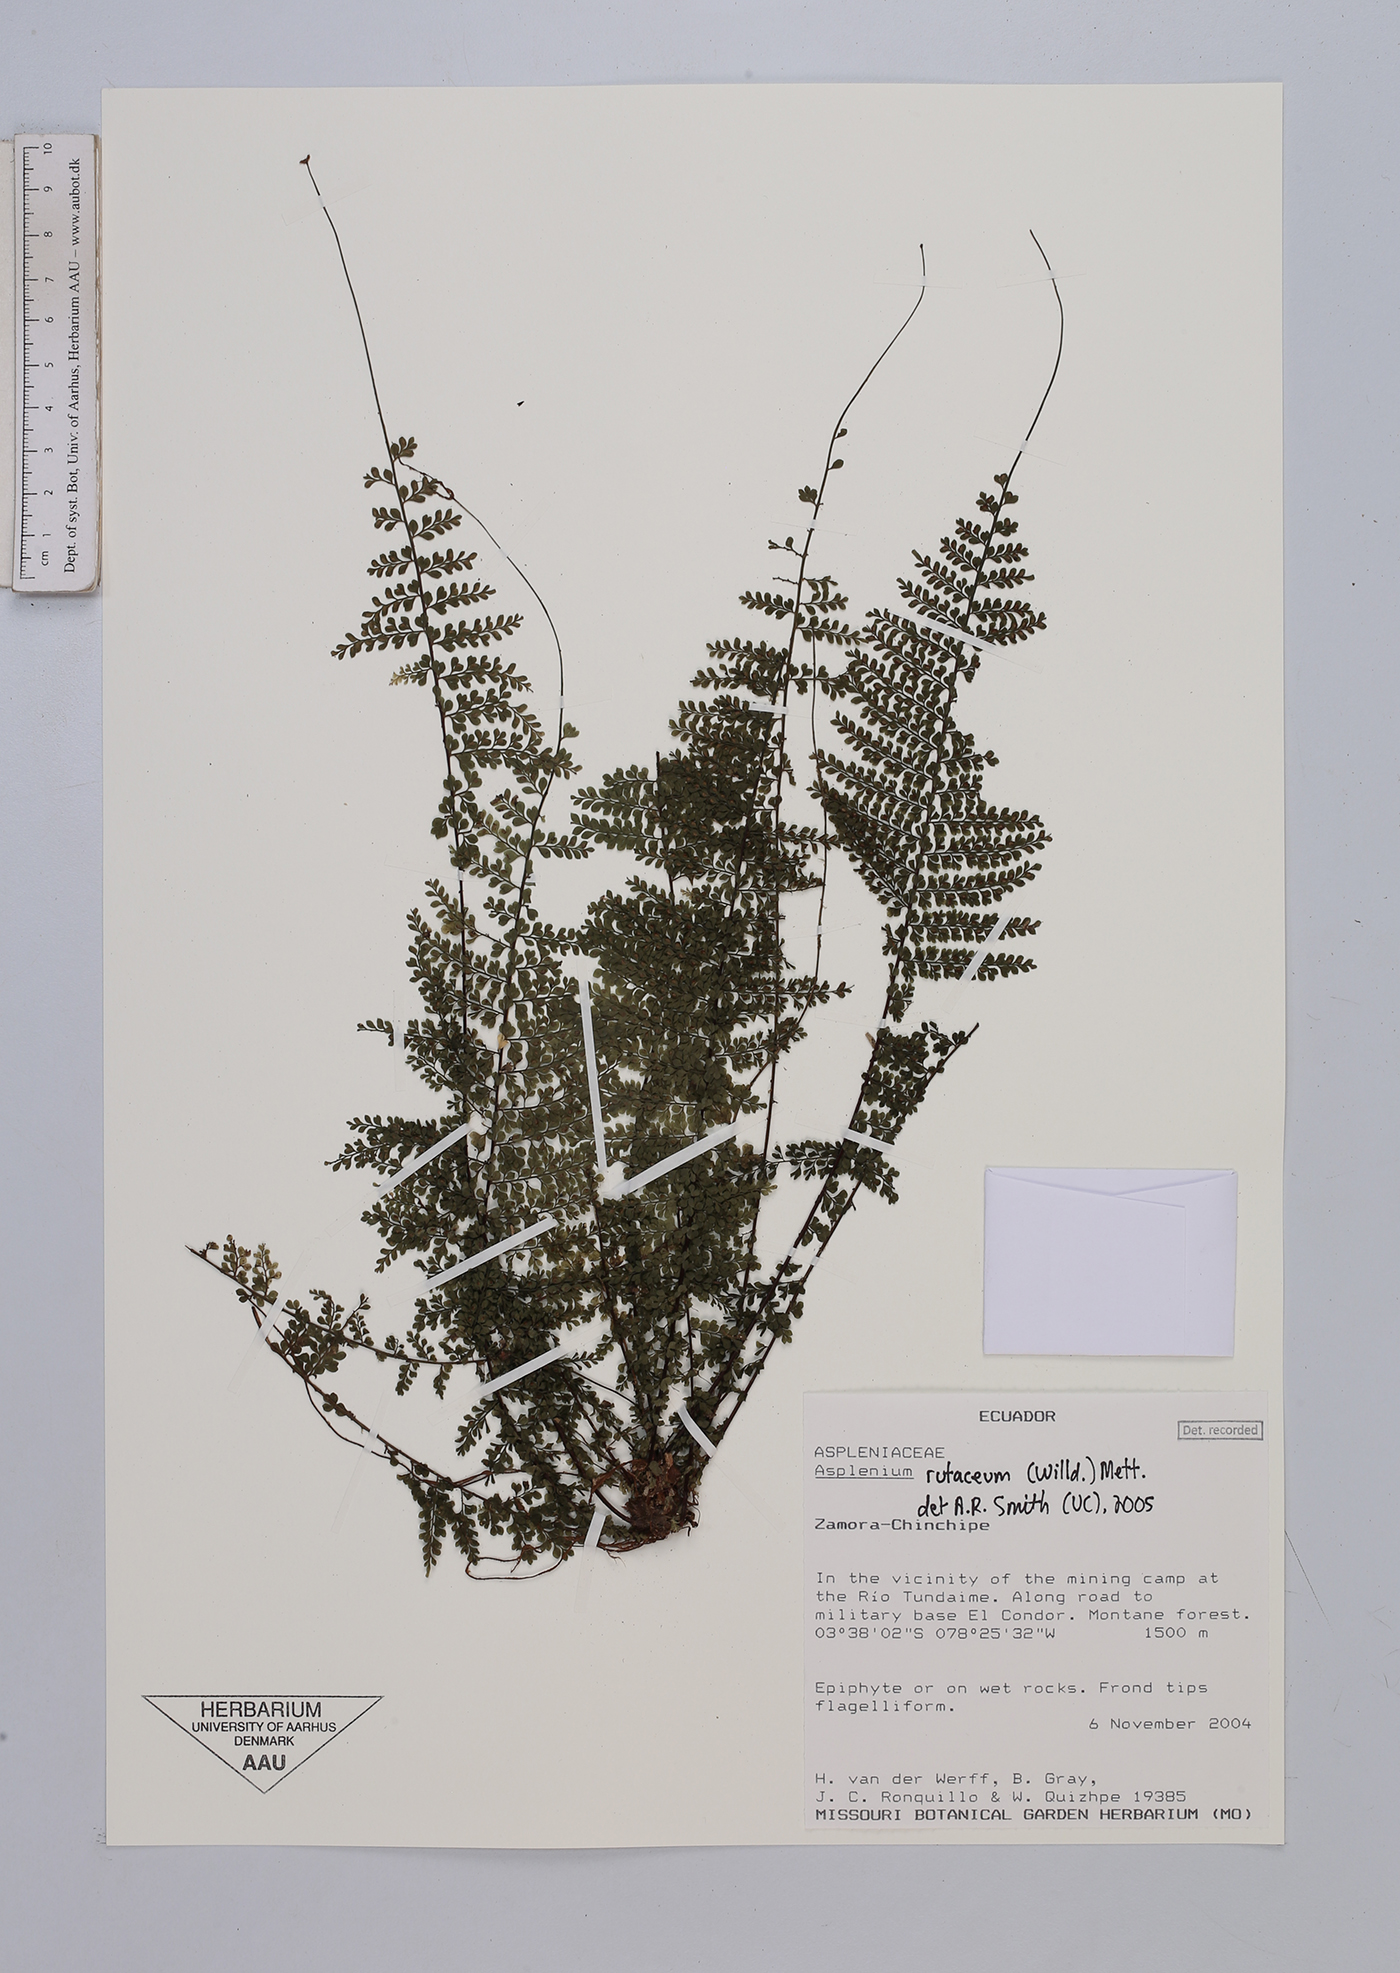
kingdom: Plantae
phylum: Tracheophyta
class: Polypodiopsida
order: Polypodiales
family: Aspleniaceae
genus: Asplenium
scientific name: Asplenium rutaceum
